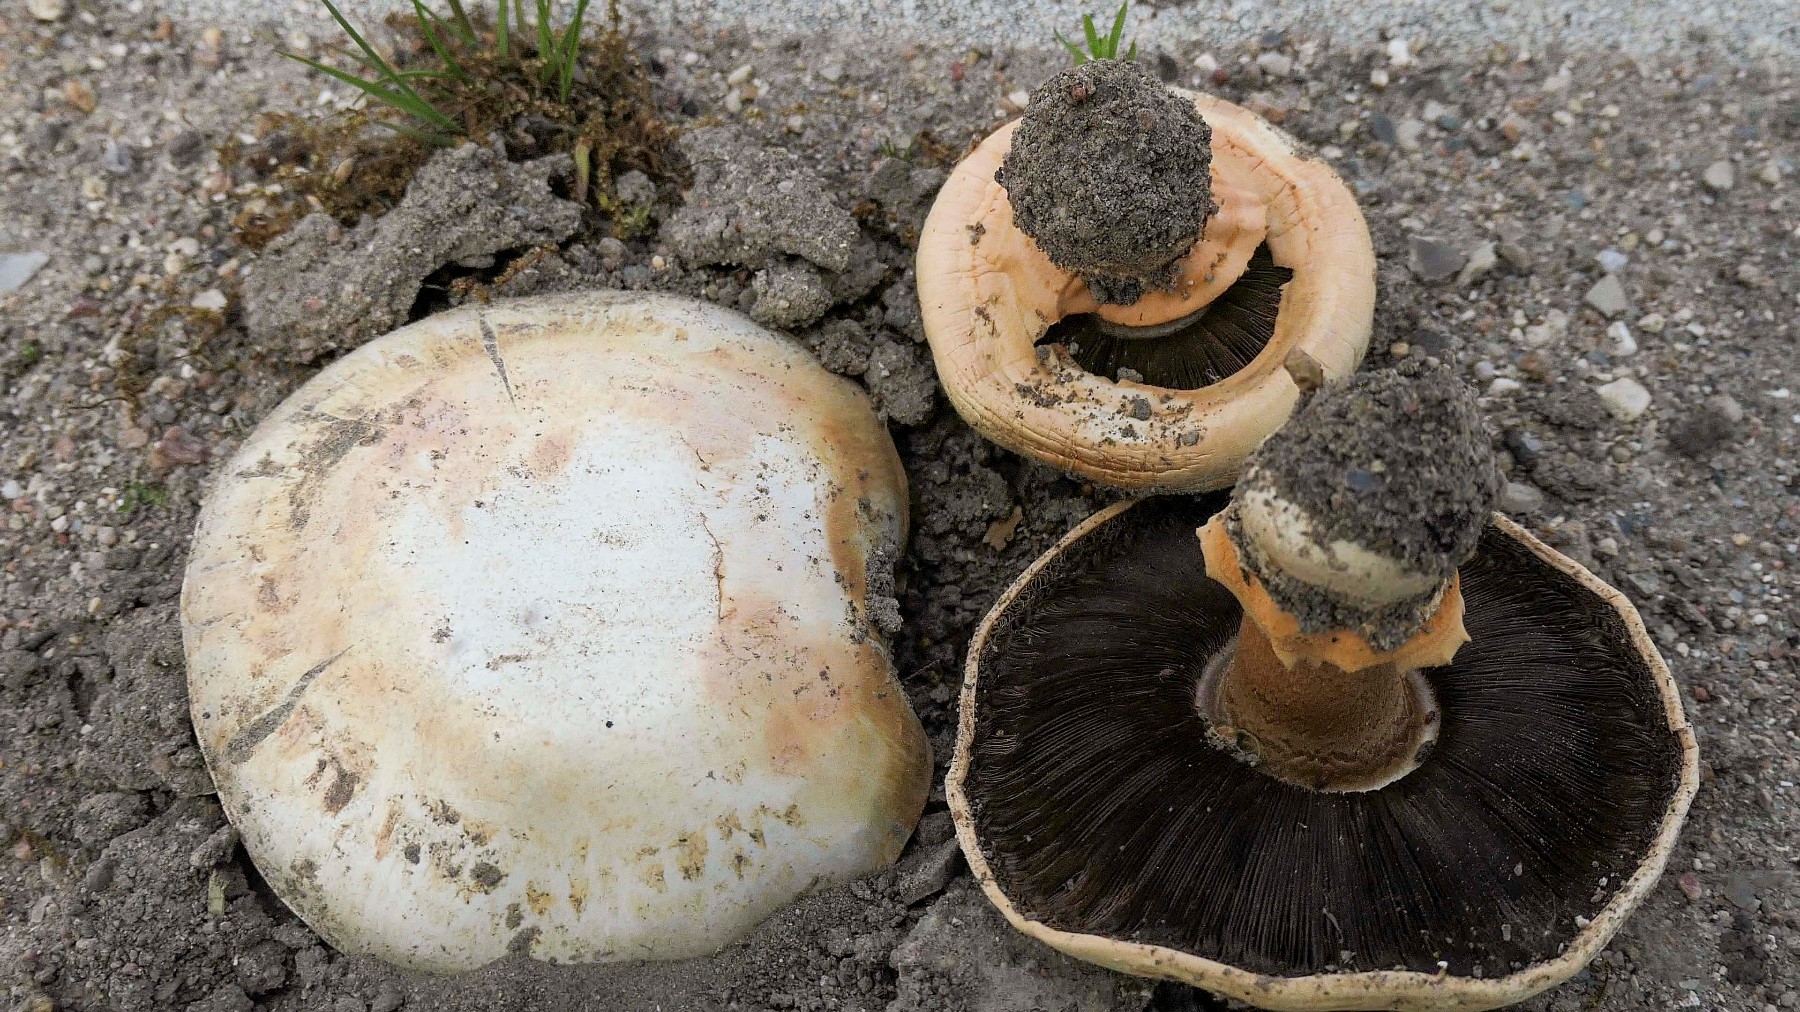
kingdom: Fungi
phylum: Basidiomycota
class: Agaricomycetes
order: Agaricales
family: Agaricaceae
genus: Agaricus
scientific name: Agaricus bernardii
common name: strandengs-champignon
